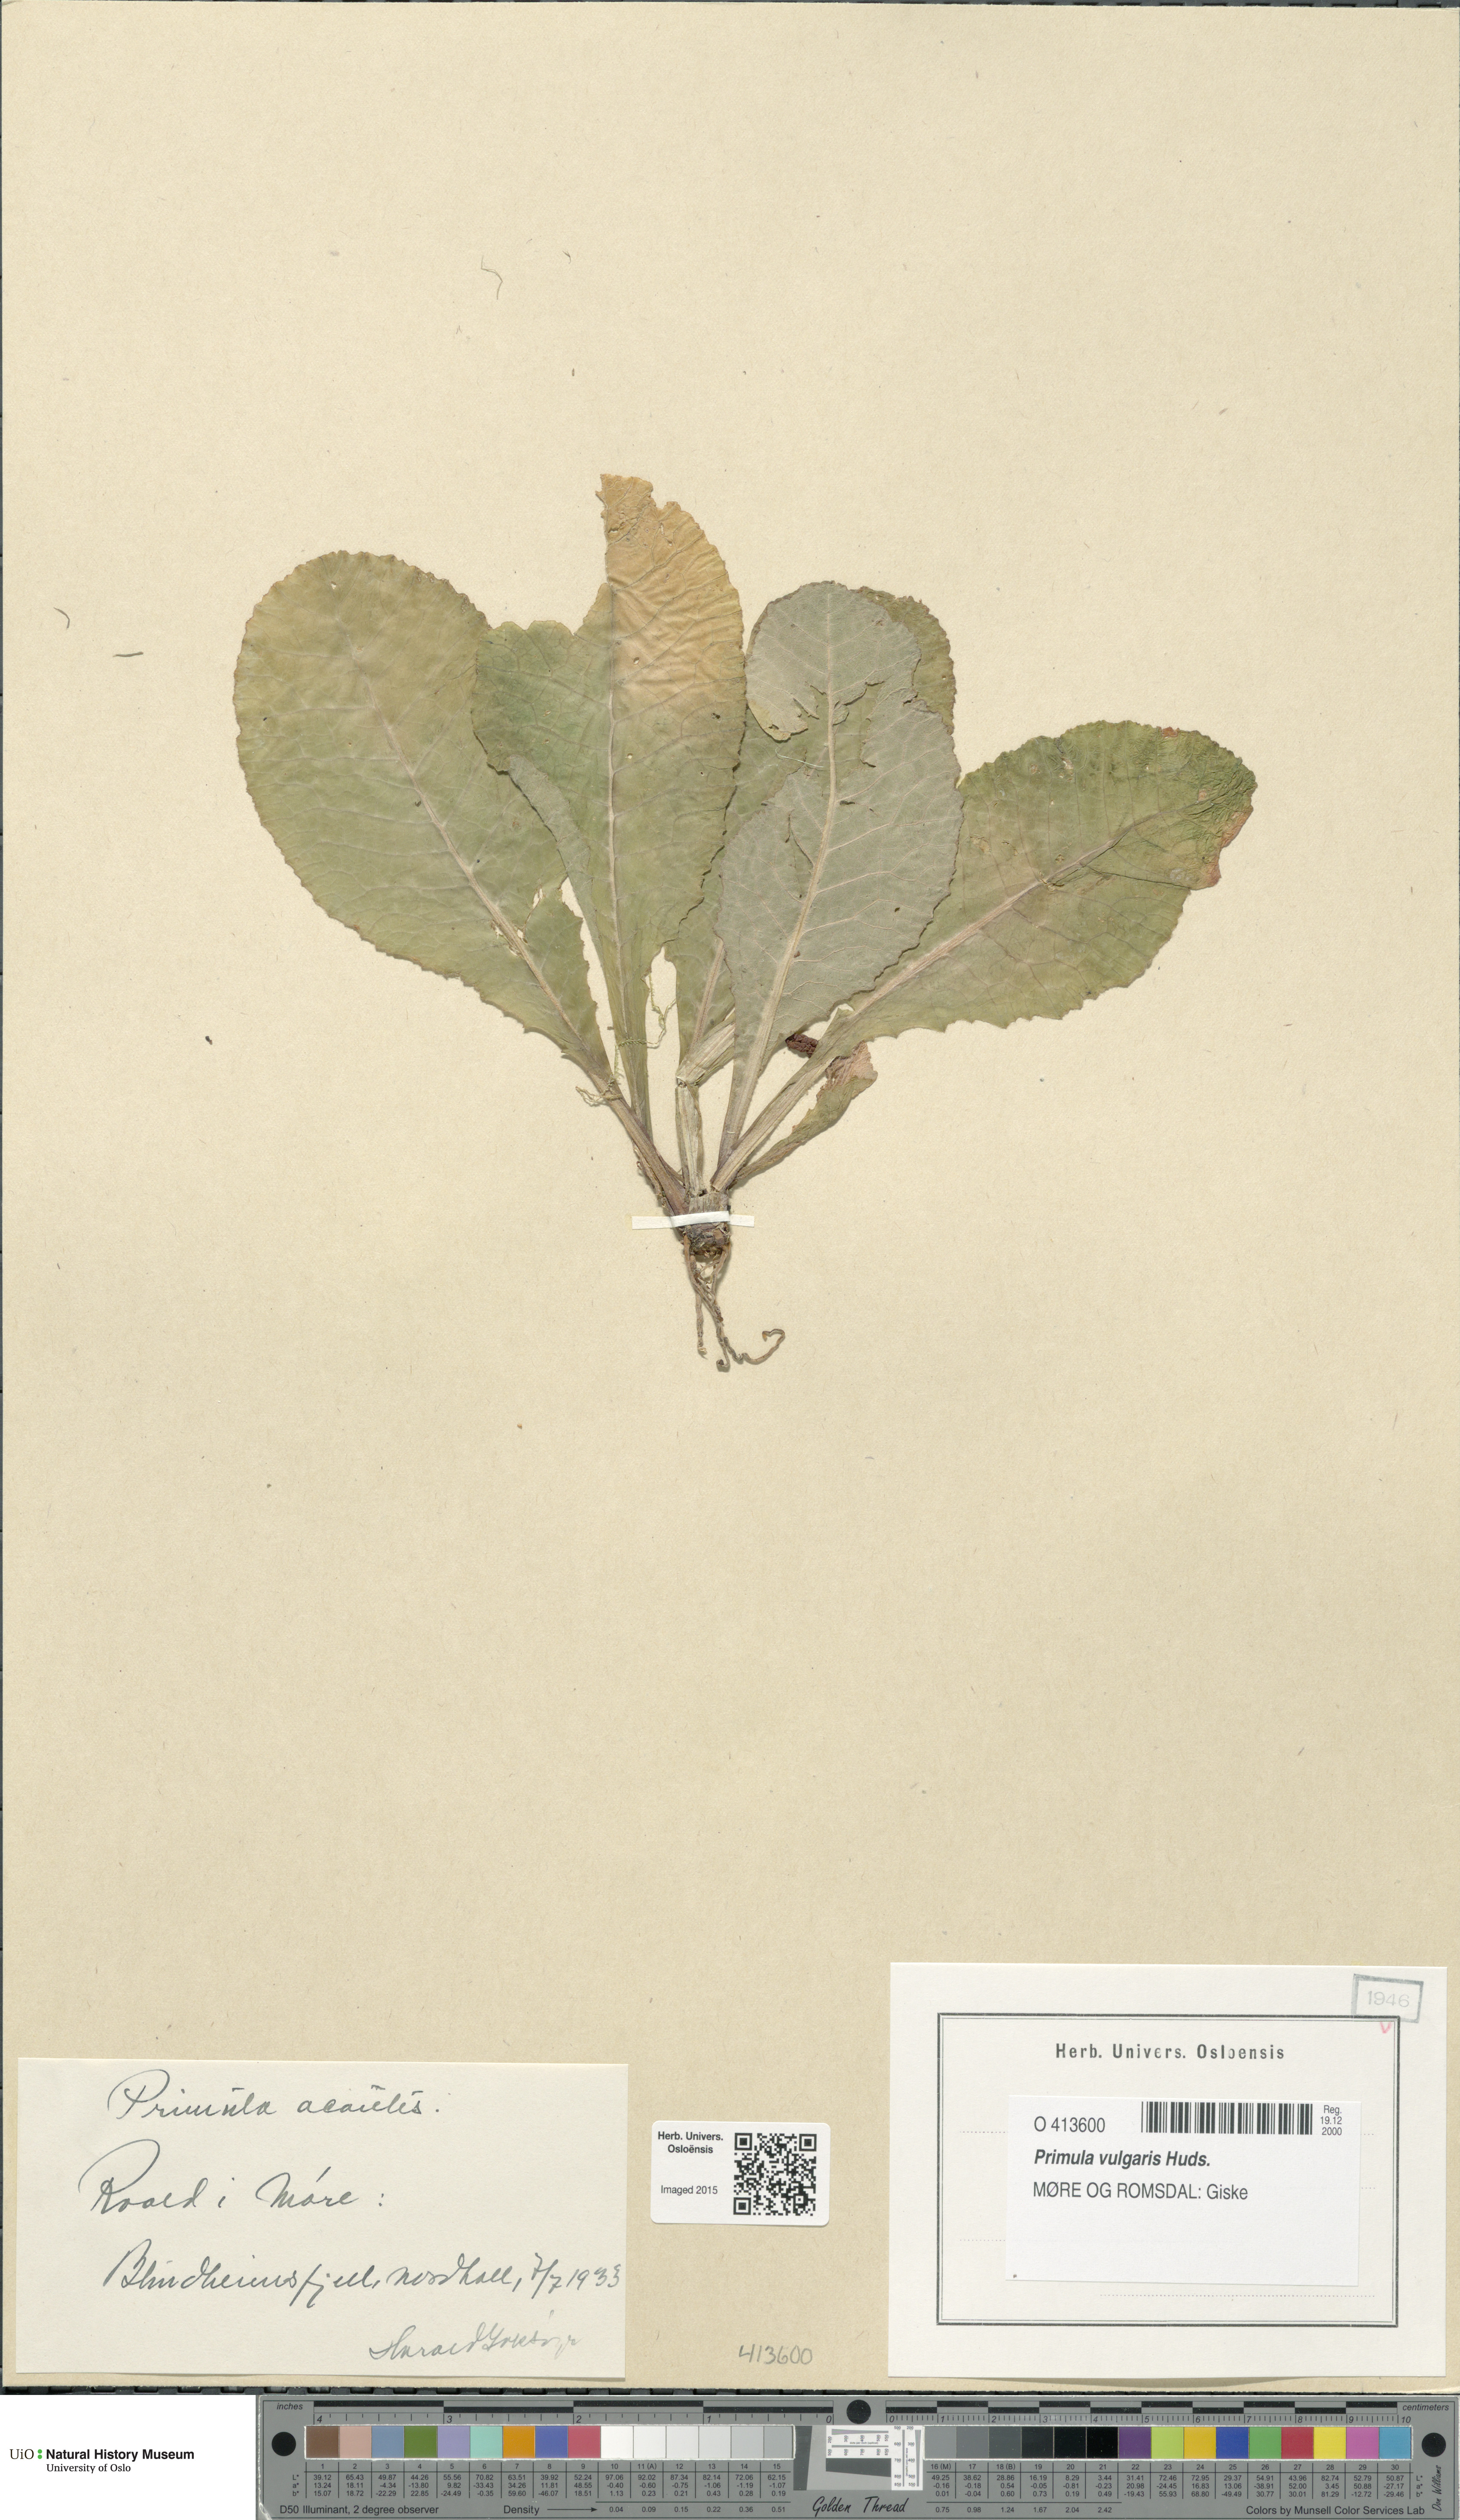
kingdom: Plantae
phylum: Tracheophyta
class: Magnoliopsida
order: Ericales
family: Primulaceae
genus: Primula
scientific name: Primula vulgaris
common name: Primrose
